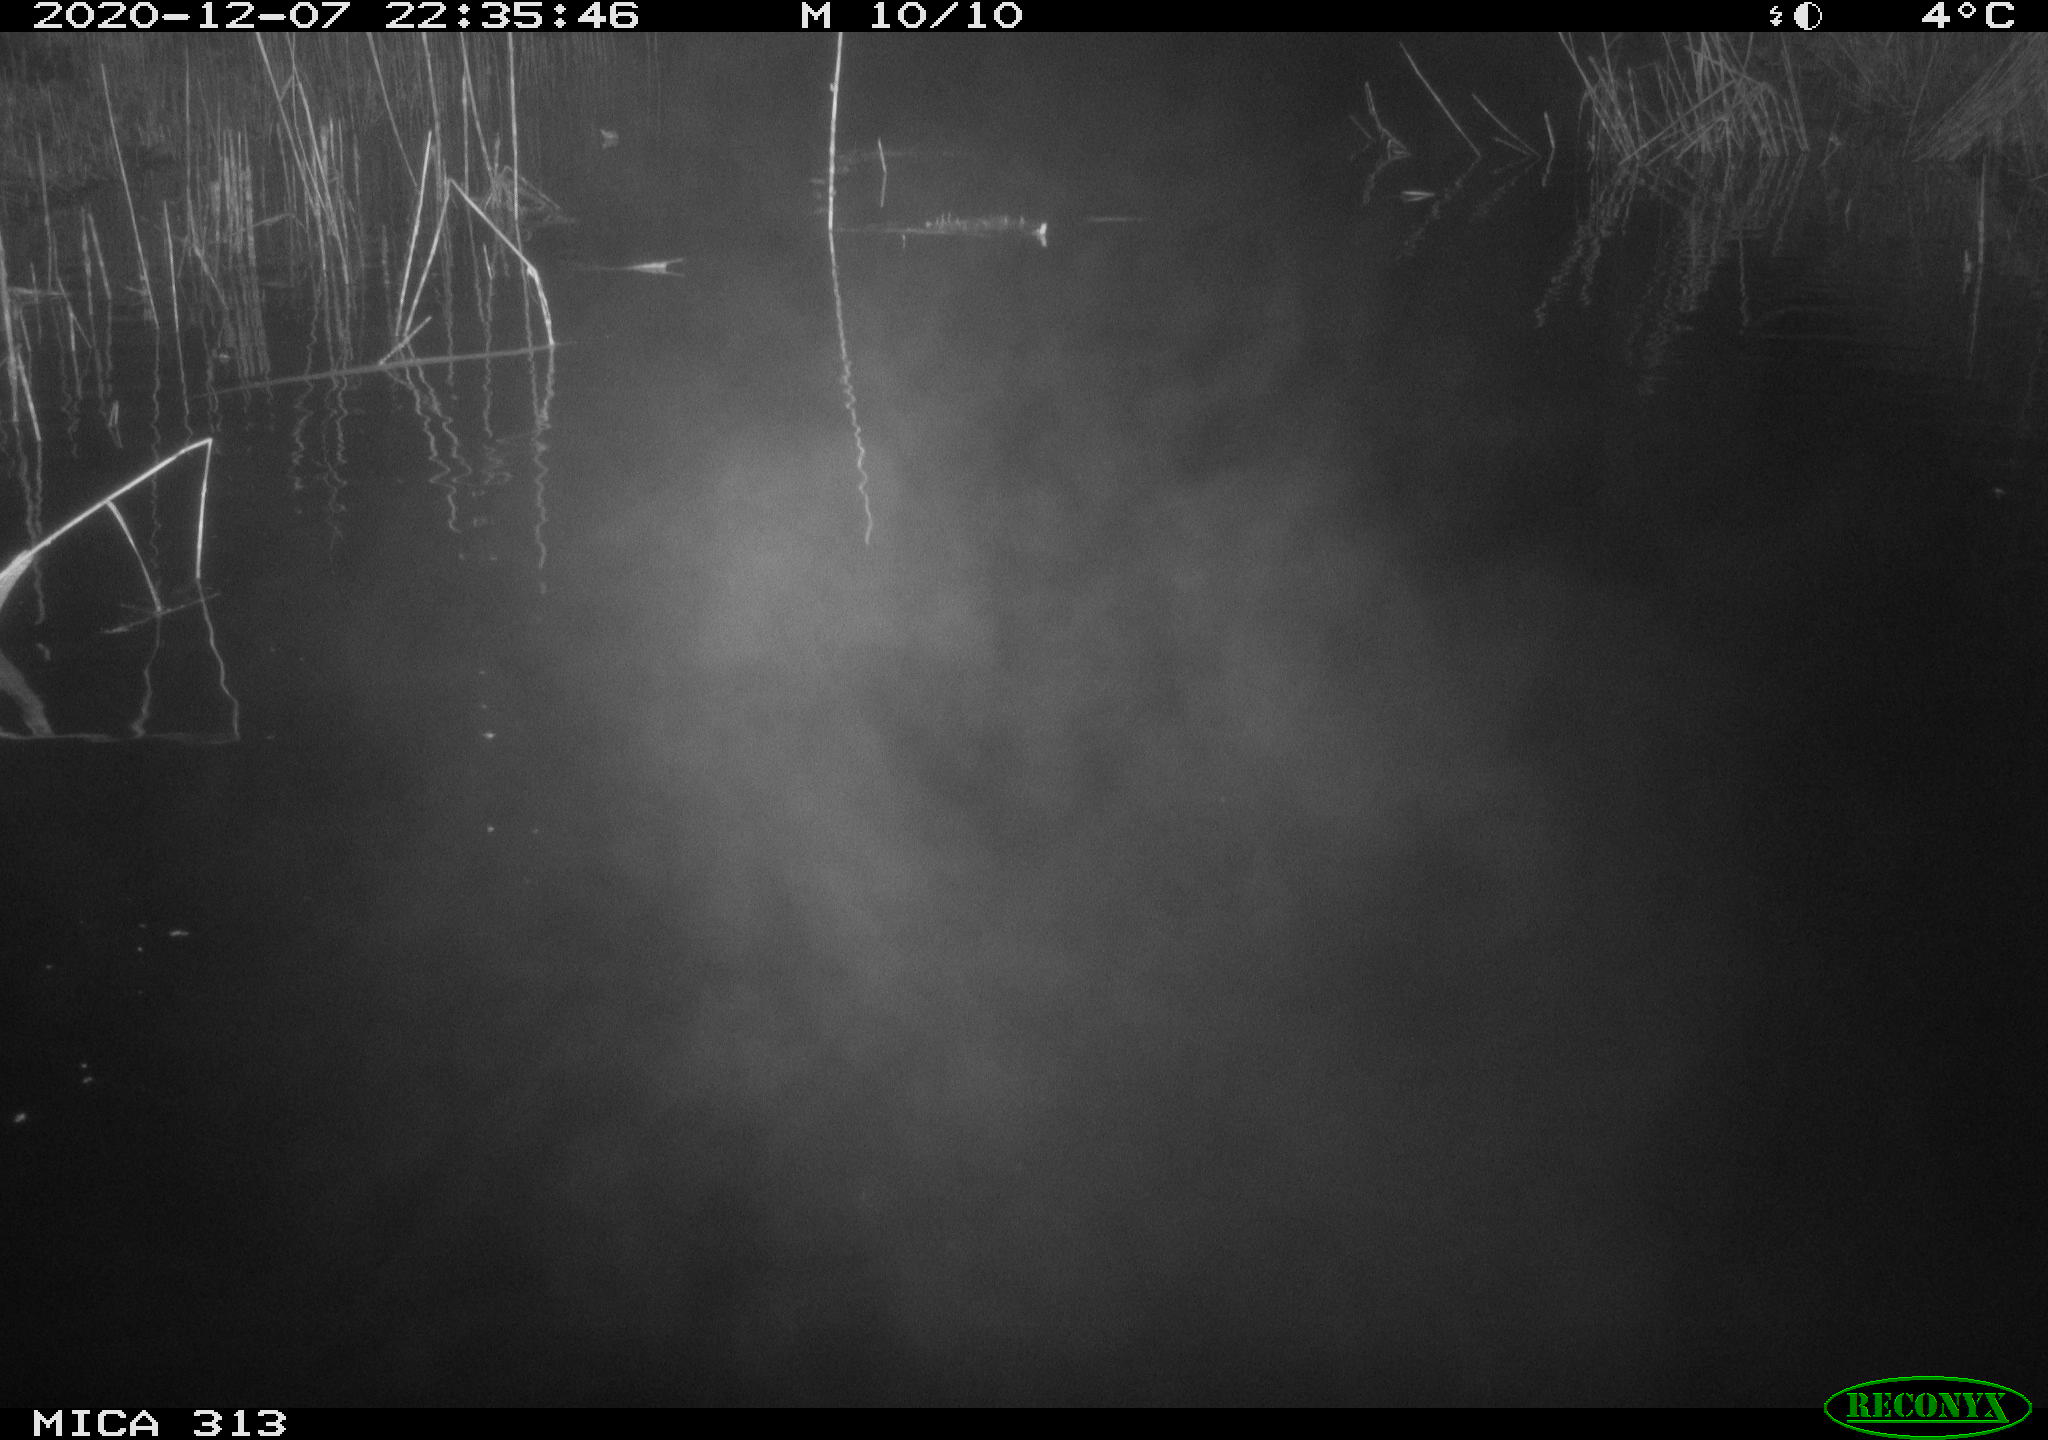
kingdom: Animalia
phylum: Chordata
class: Mammalia
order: Rodentia
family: Muridae
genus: Rattus
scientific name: Rattus norvegicus
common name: Brown rat
